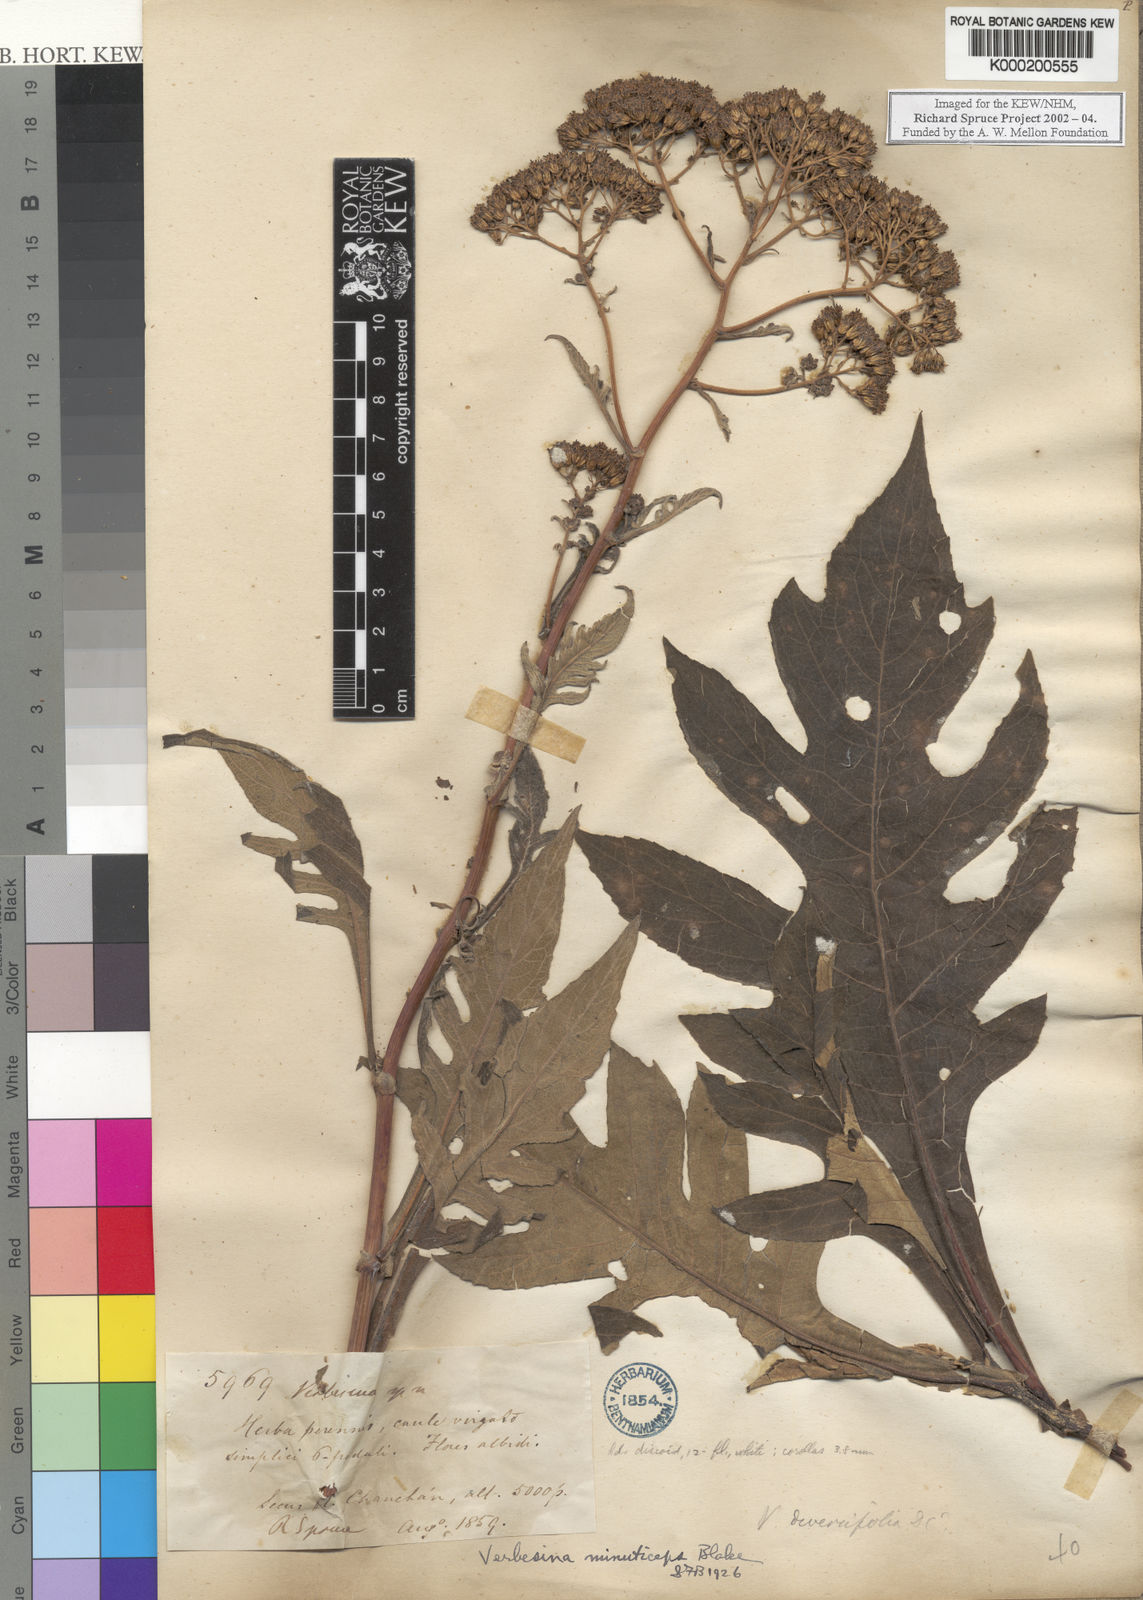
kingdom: Plantae
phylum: Tracheophyta
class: Magnoliopsida
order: Asterales
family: Asteraceae
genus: Verbesina
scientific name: Verbesina minuticeps
